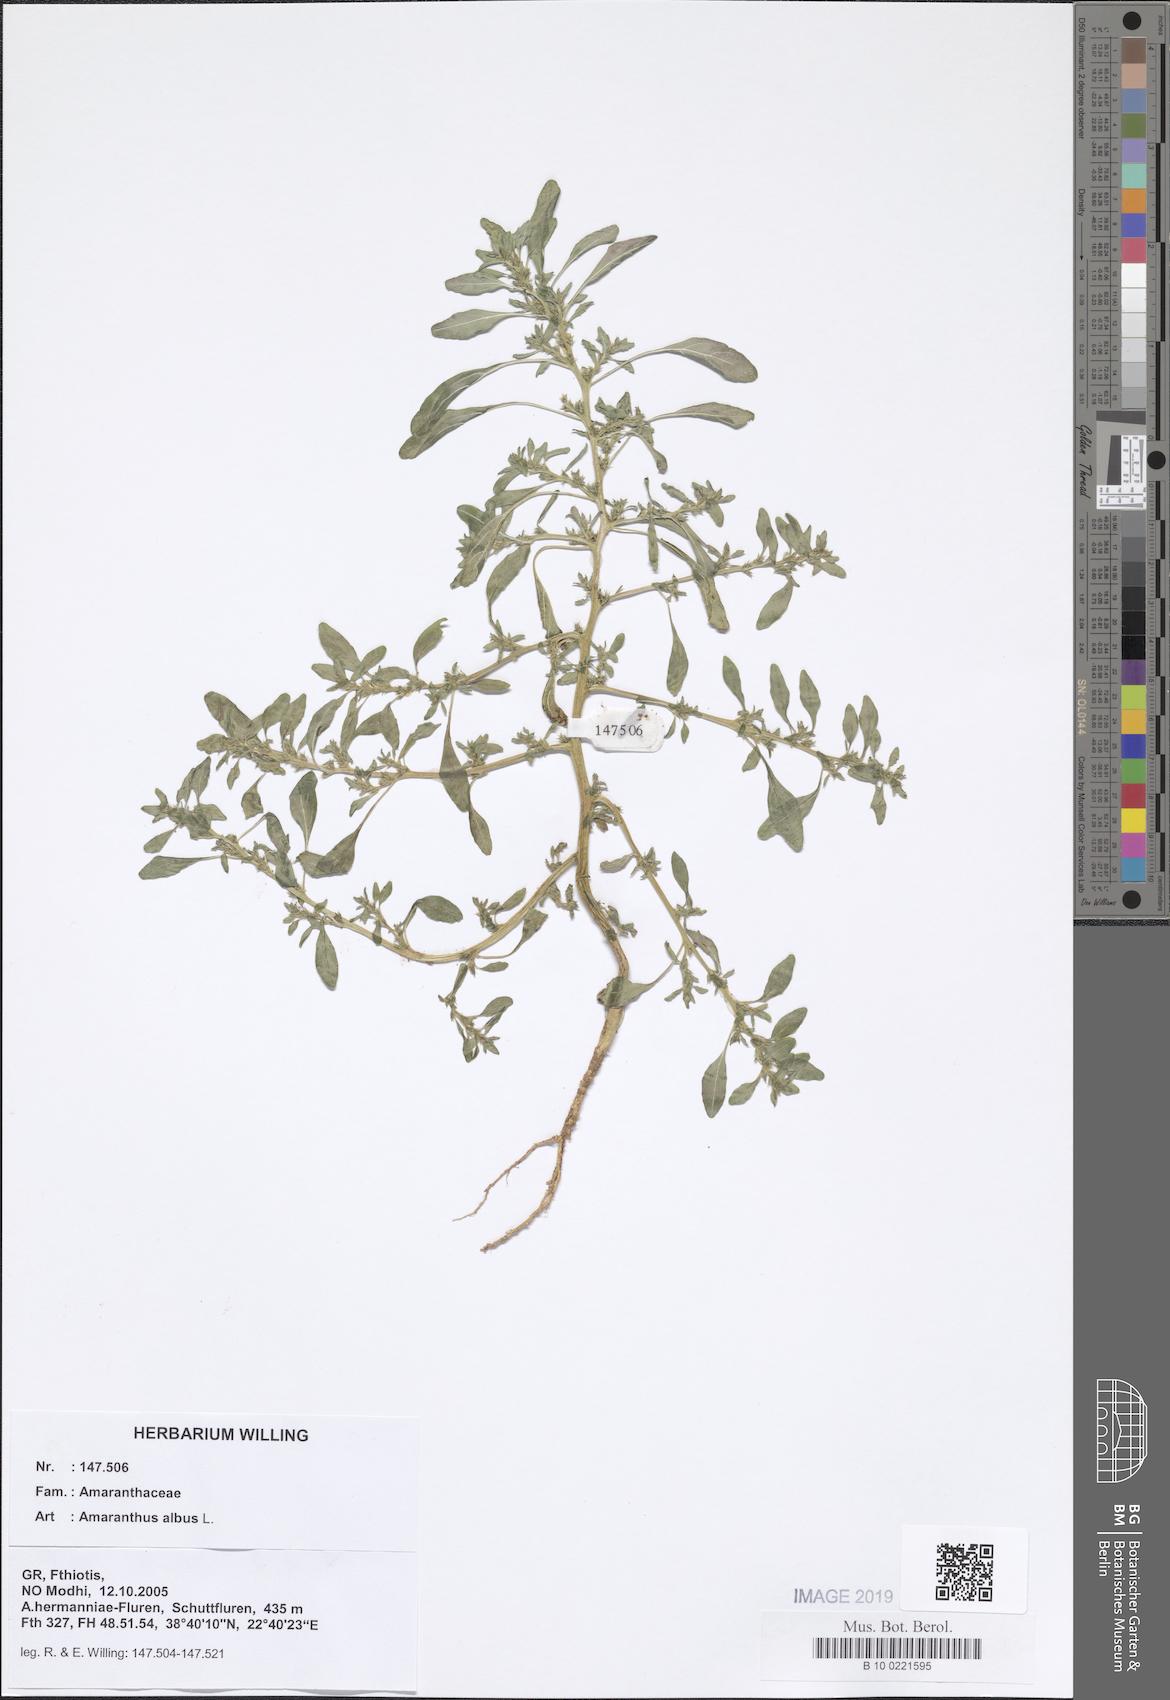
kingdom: Plantae
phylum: Tracheophyta
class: Magnoliopsida
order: Caryophyllales
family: Amaranthaceae
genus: Amaranthus
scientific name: Amaranthus albus
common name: White pigweed
